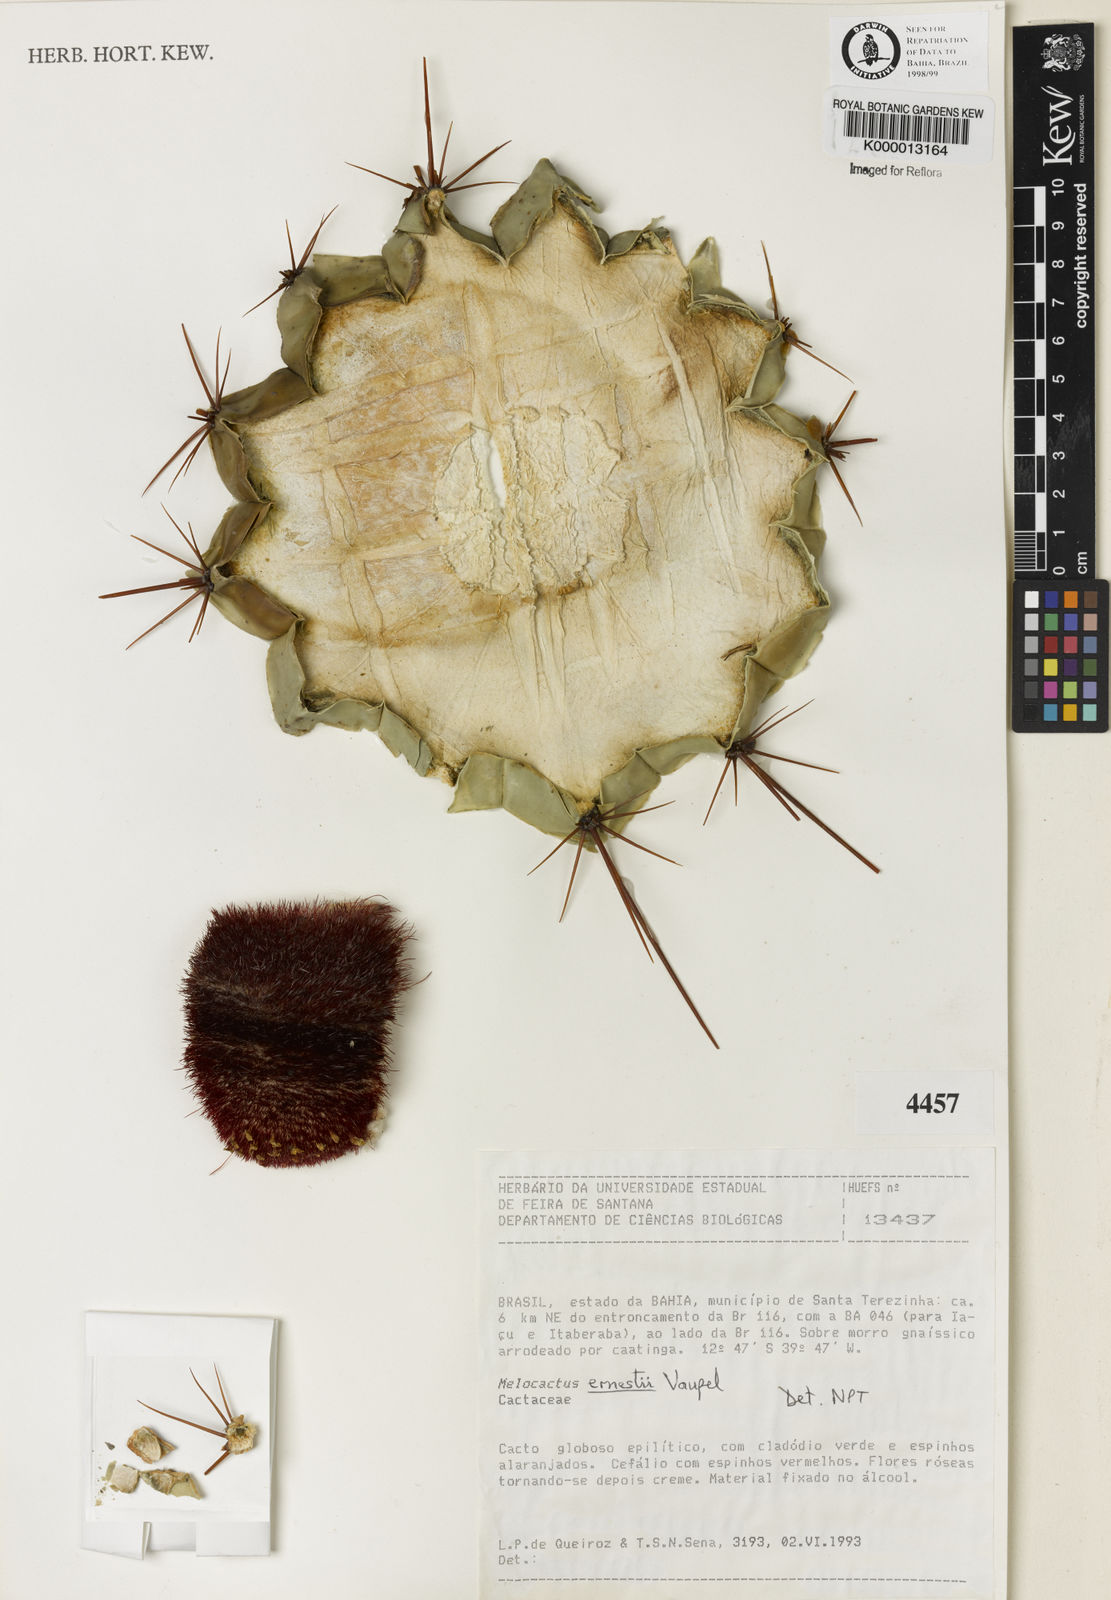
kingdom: Plantae
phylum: Tracheophyta
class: Magnoliopsida
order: Caryophyllales
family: Cactaceae
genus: Melocactus
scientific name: Melocactus ernestii
